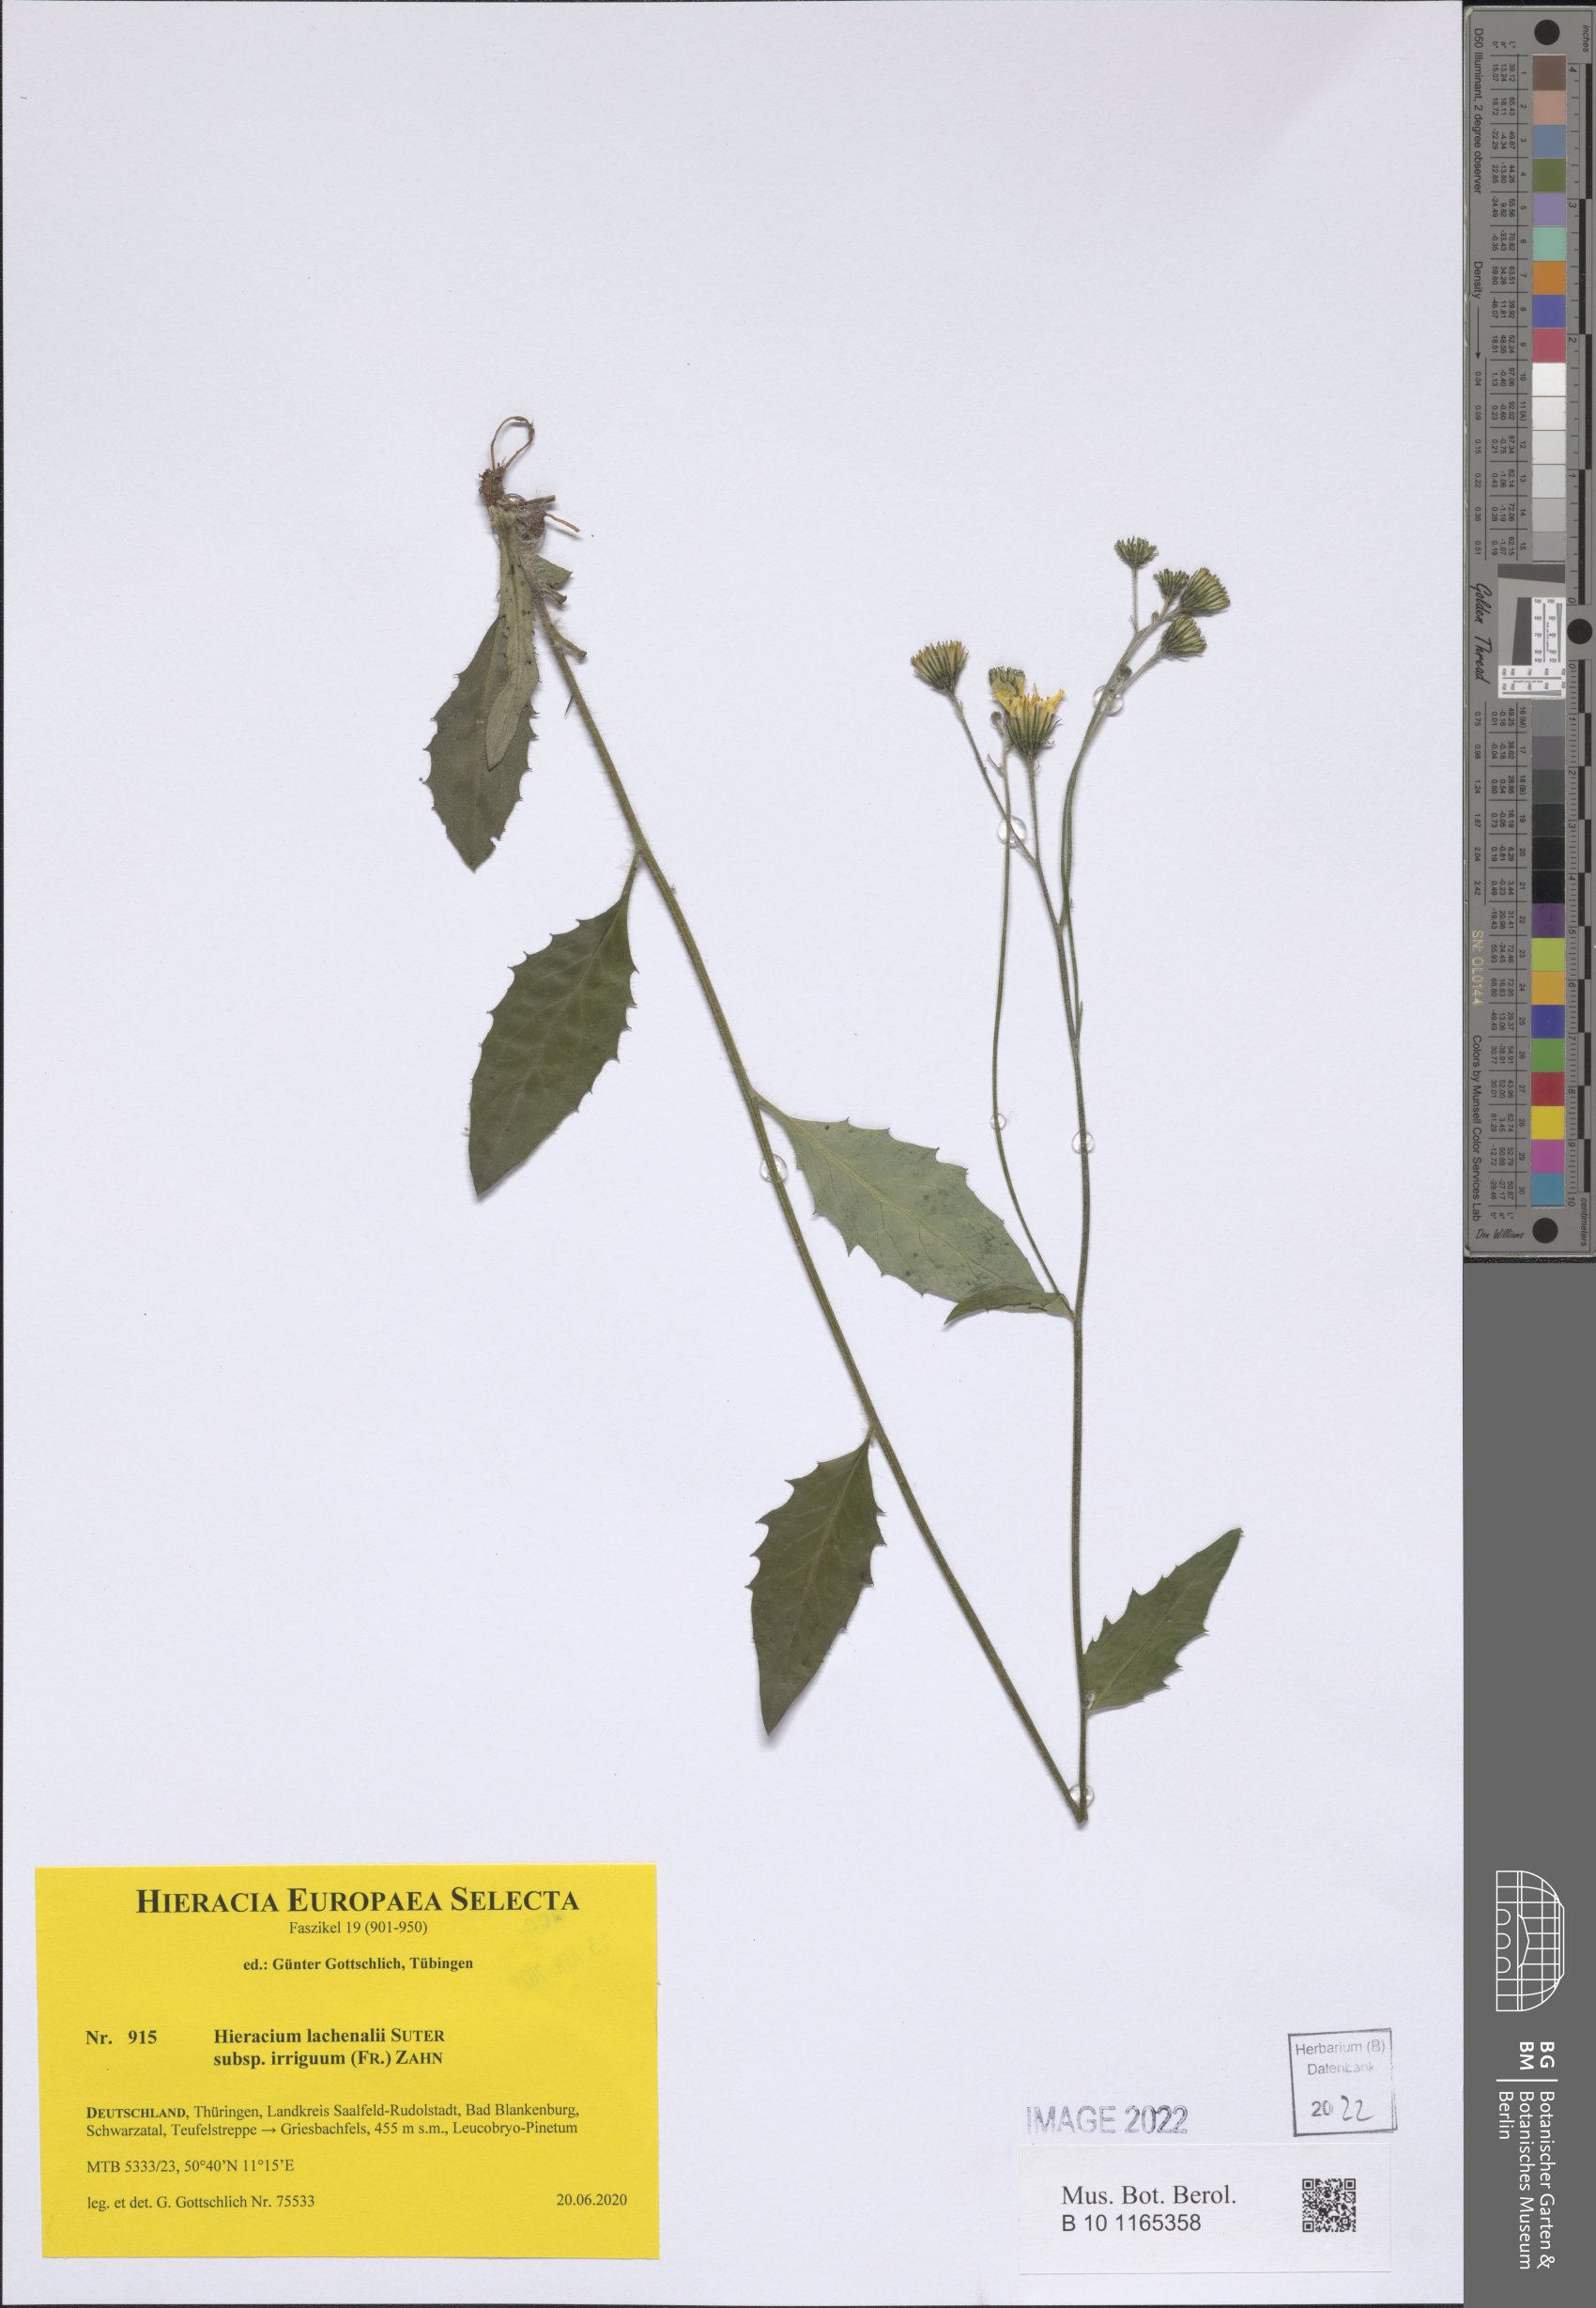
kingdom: Plantae
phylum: Tracheophyta
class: Magnoliopsida
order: Asterales
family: Asteraceae
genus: Hieracium
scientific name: Hieracium lachenalii
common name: Common hawkweed
